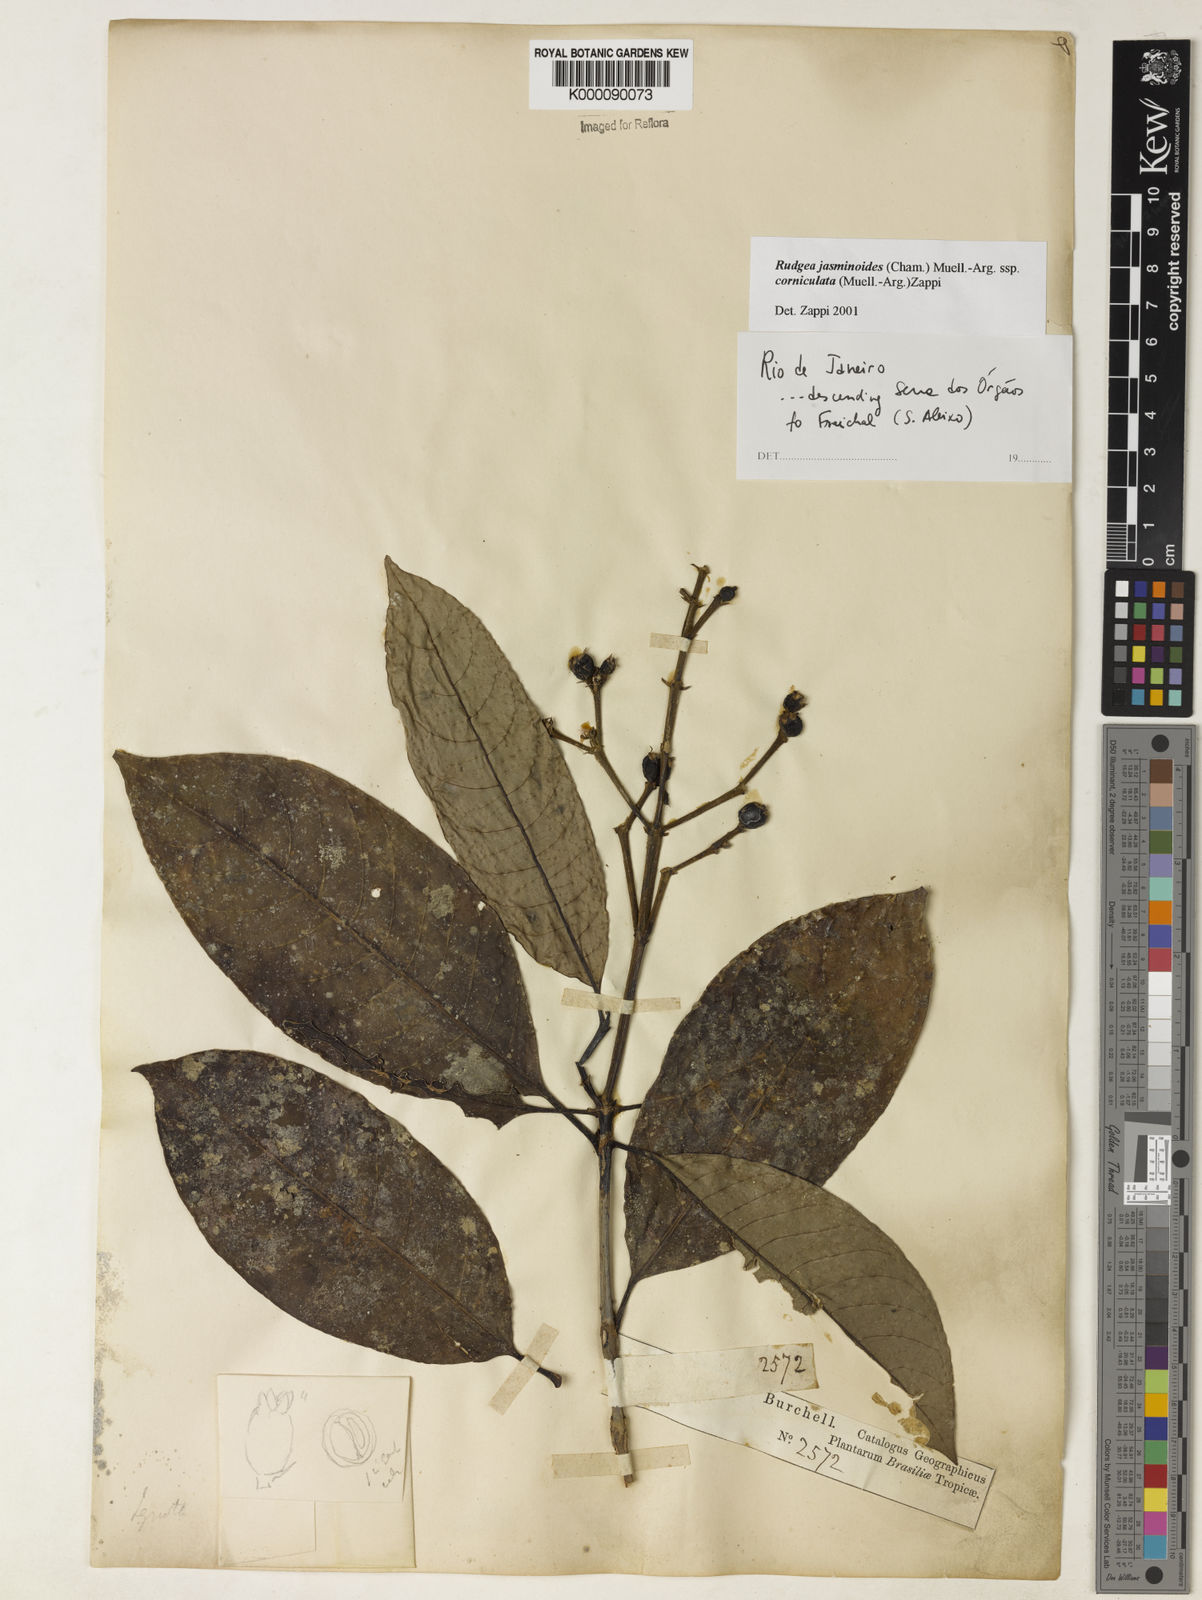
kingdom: Plantae
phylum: Tracheophyta
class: Magnoliopsida
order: Gentianales
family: Rubiaceae
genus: Rudgea
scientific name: Rudgea jasminoides
